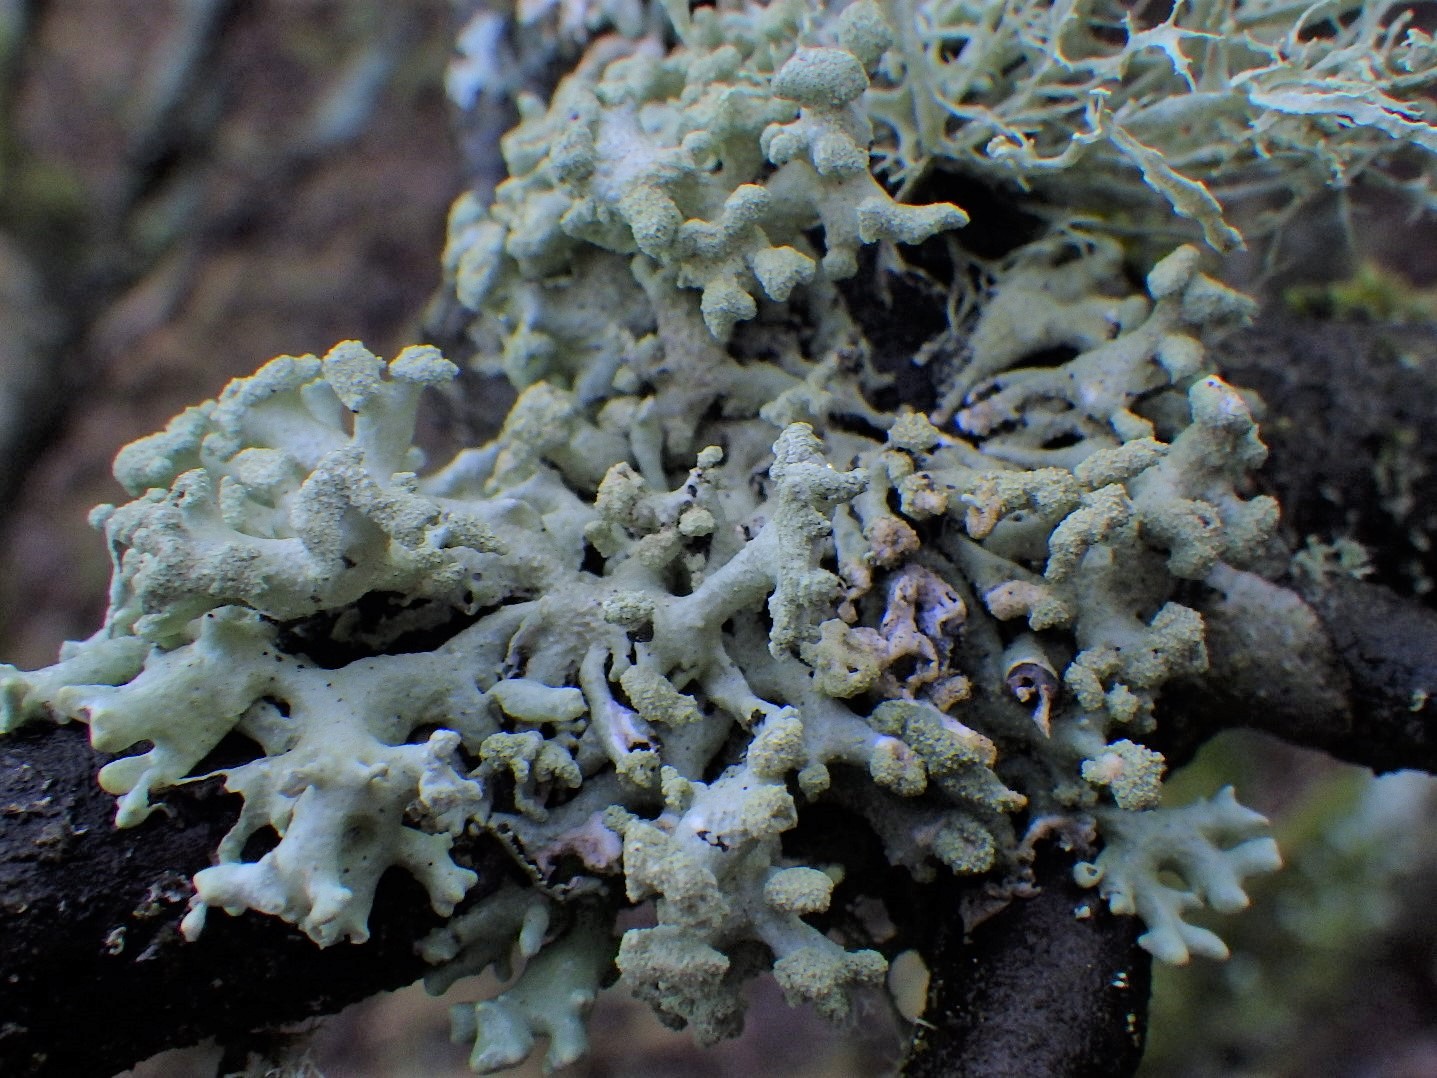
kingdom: Fungi
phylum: Ascomycota
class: Lecanoromycetes
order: Lecanorales
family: Parmeliaceae
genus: Hypogymnia
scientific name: Hypogymnia tubulosa
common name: finger-kvistlav
